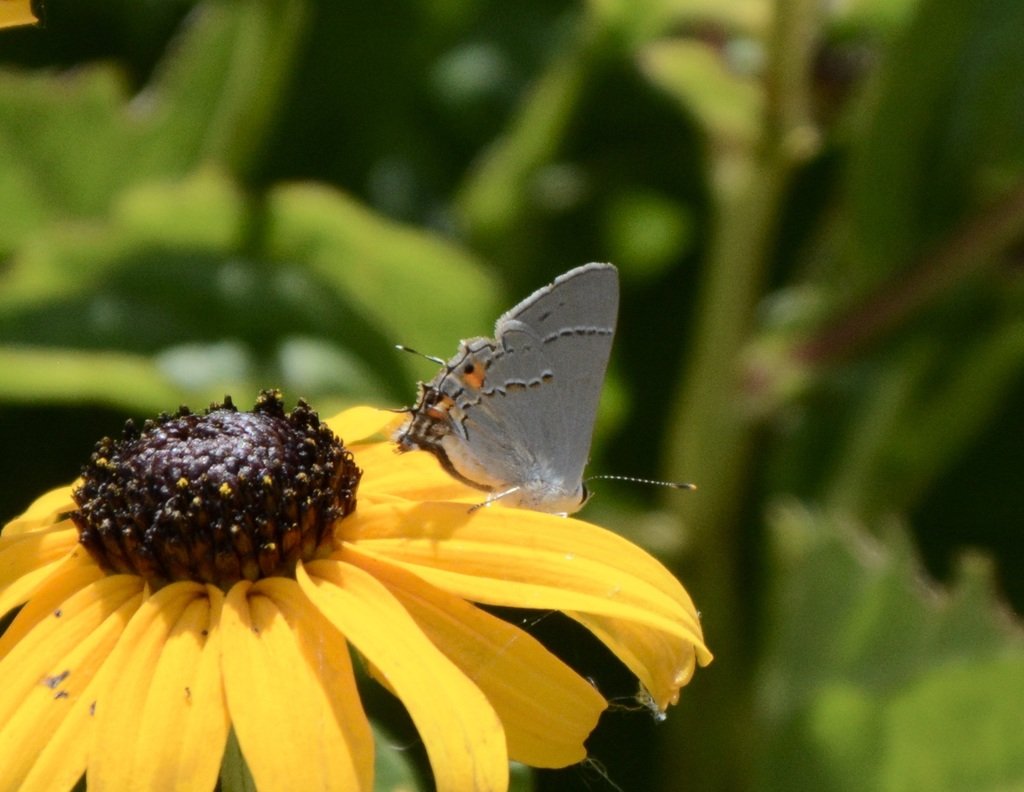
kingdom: Animalia
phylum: Arthropoda
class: Insecta
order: Lepidoptera
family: Lycaenidae
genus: Strymon
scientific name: Strymon melinus
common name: Gray Hairstreak
